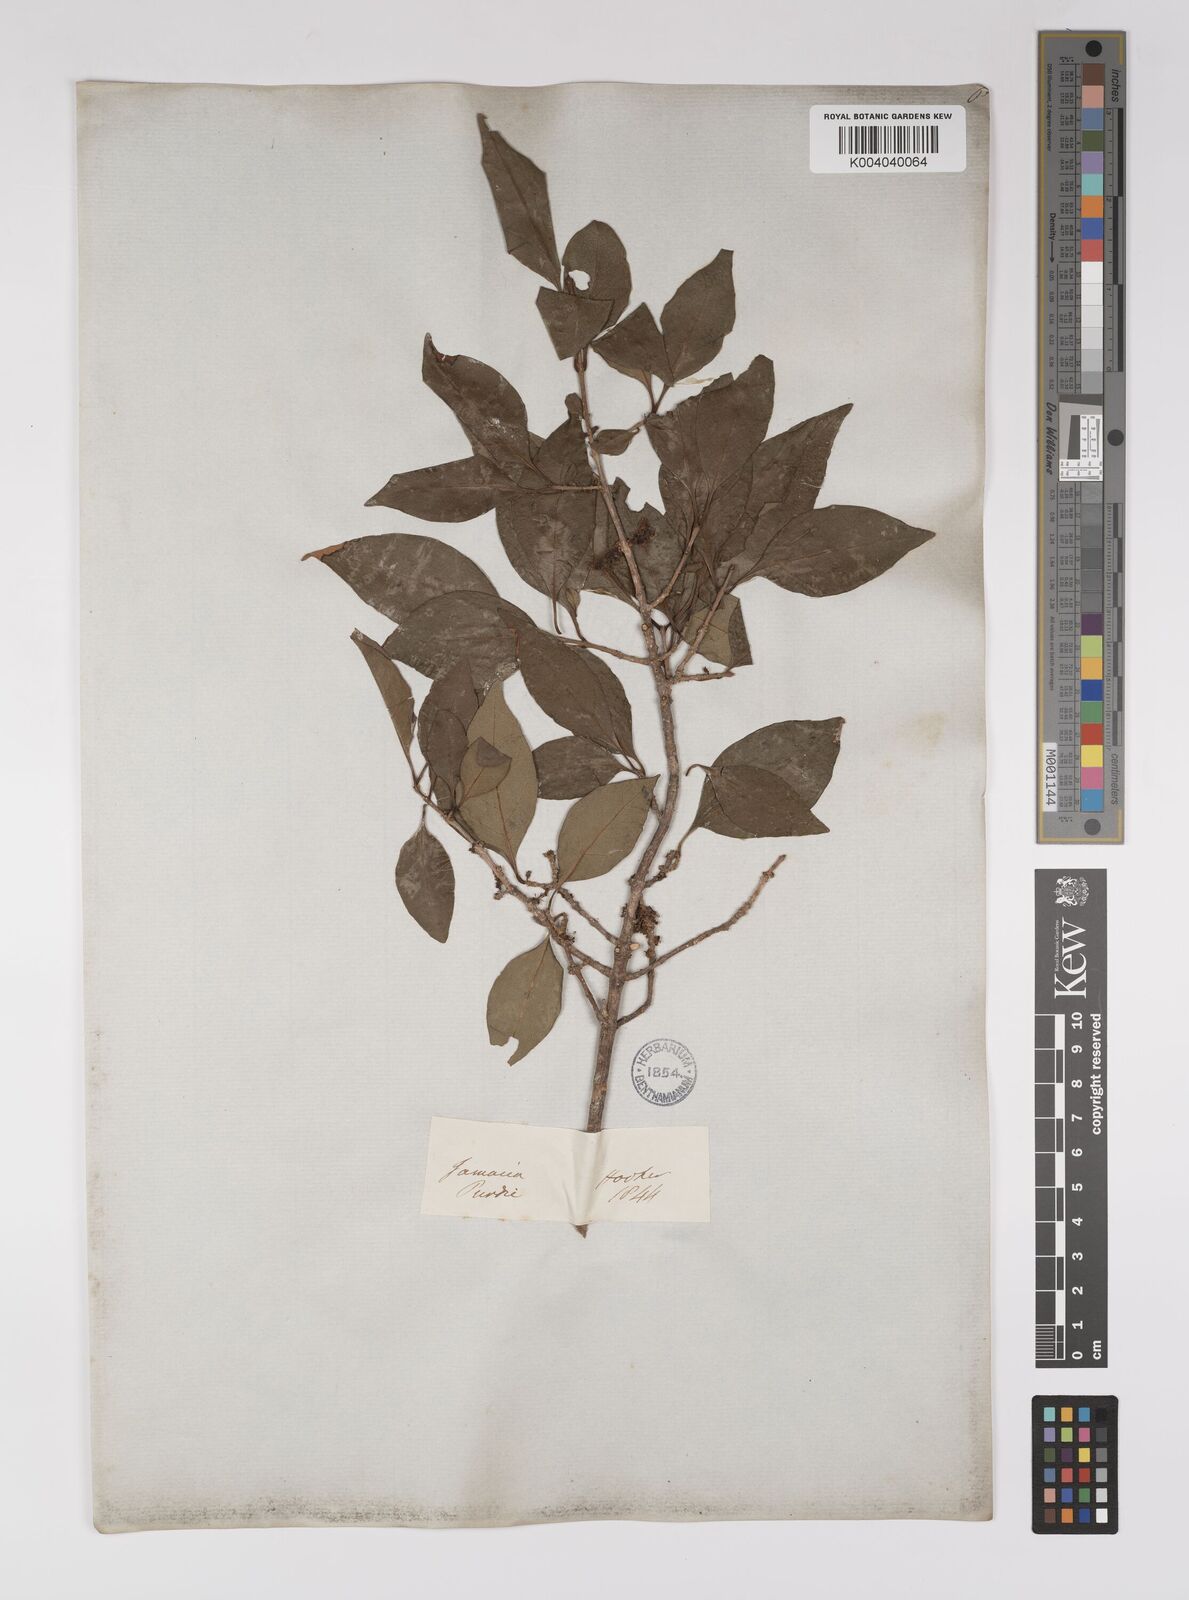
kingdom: Plantae
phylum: Tracheophyta
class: Magnoliopsida
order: Malpighiales
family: Euphorbiaceae
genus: Excoecaria
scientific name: Excoecaria agallocha
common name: River poisontree
